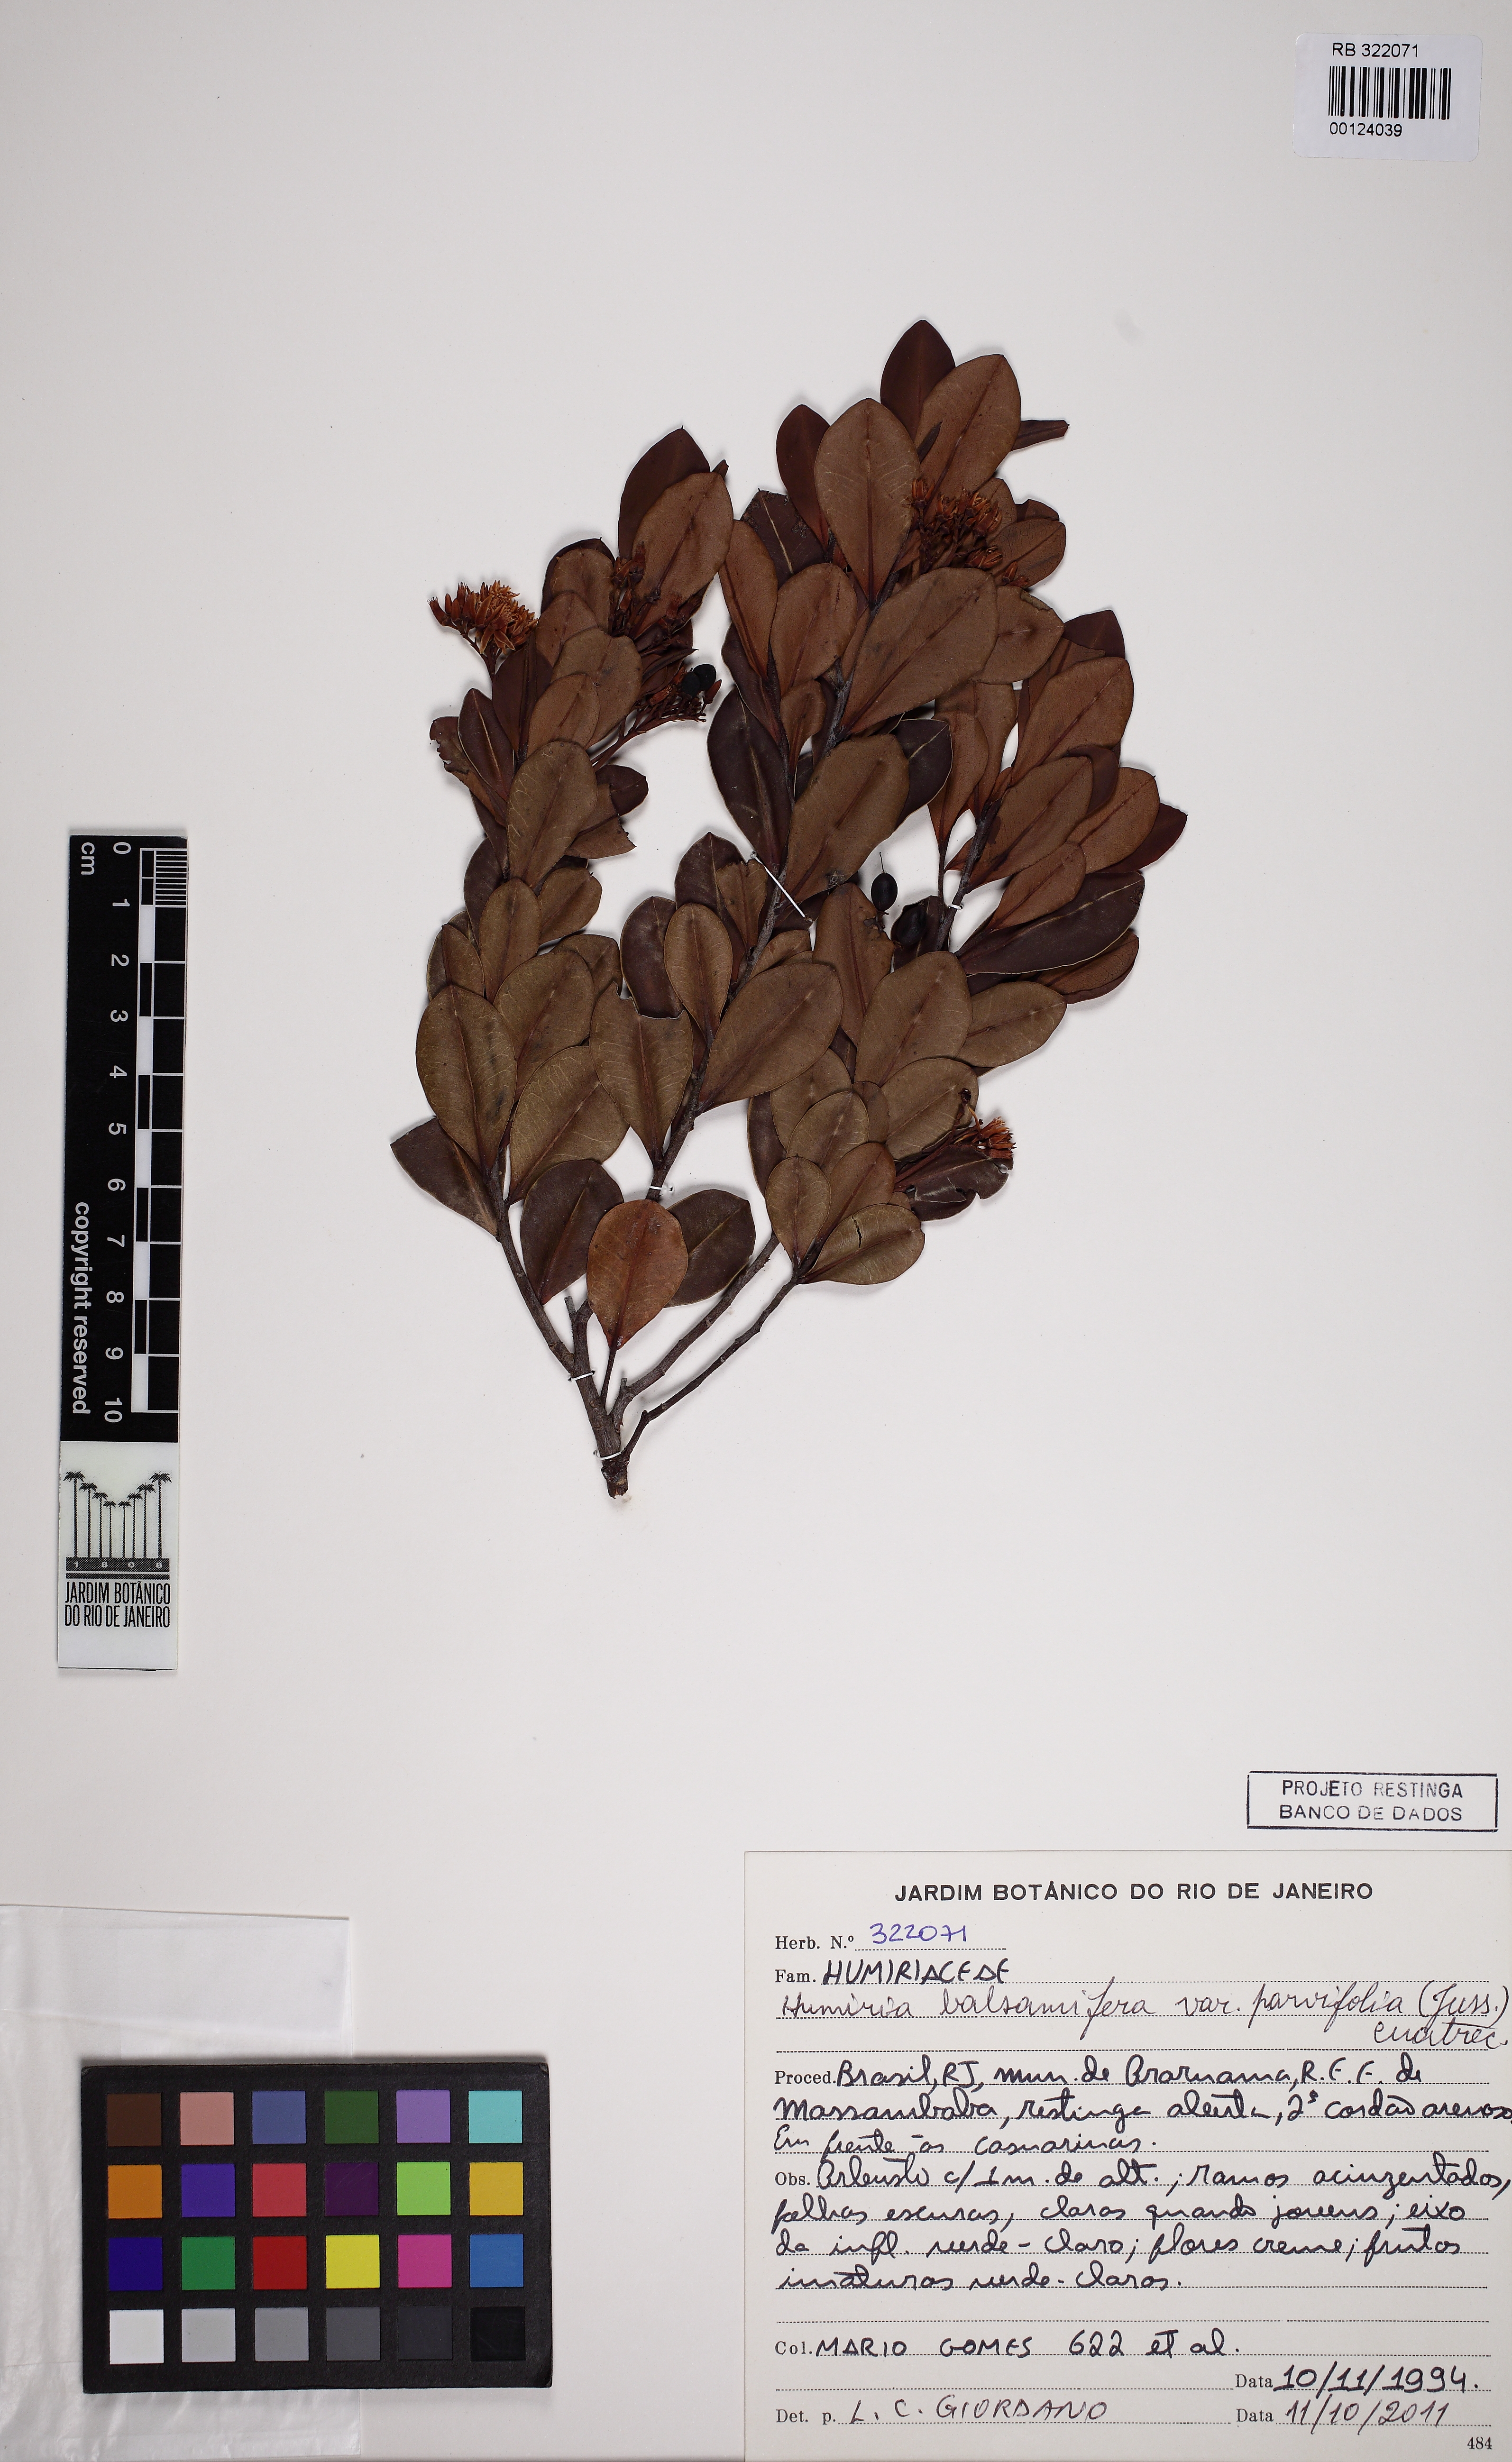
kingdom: Plantae
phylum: Tracheophyta
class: Magnoliopsida
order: Malpighiales
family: Humiriaceae
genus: Humiria
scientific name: Humiria parvifolia
